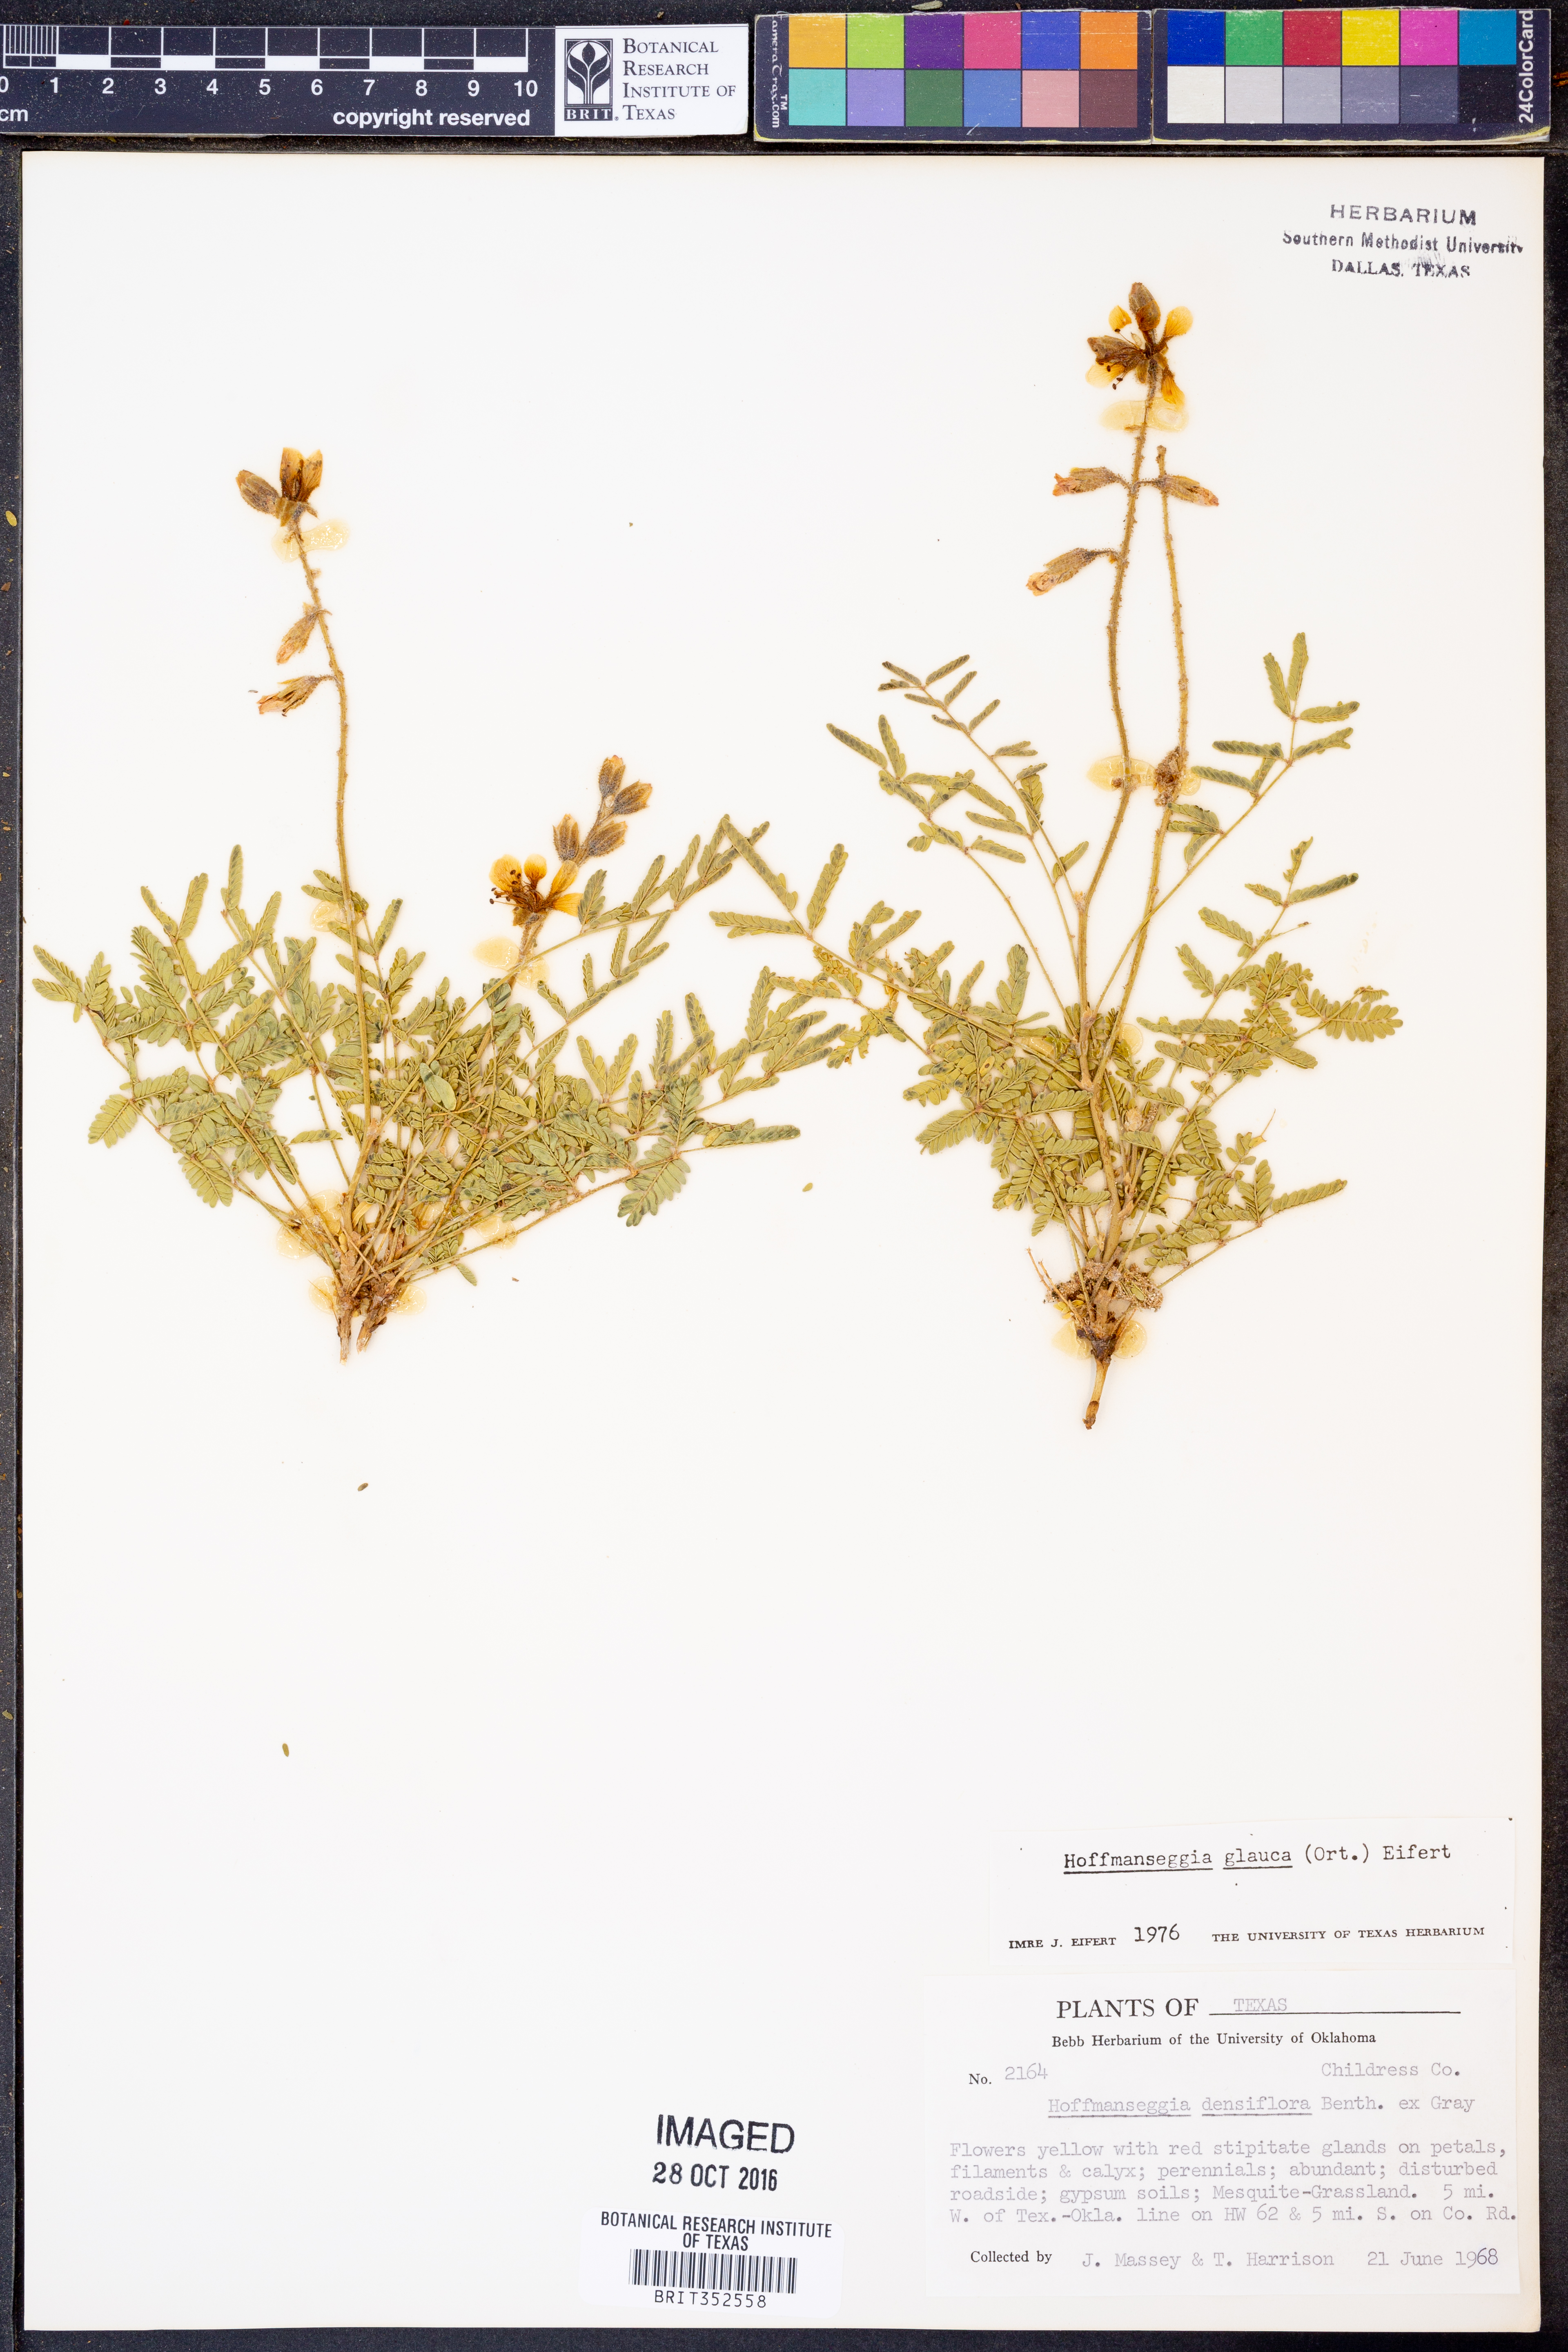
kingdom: Plantae
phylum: Tracheophyta
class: Magnoliopsida
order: Fabales
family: Fabaceae
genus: Hoffmannseggia
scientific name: Hoffmannseggia glauca
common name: Pignut
